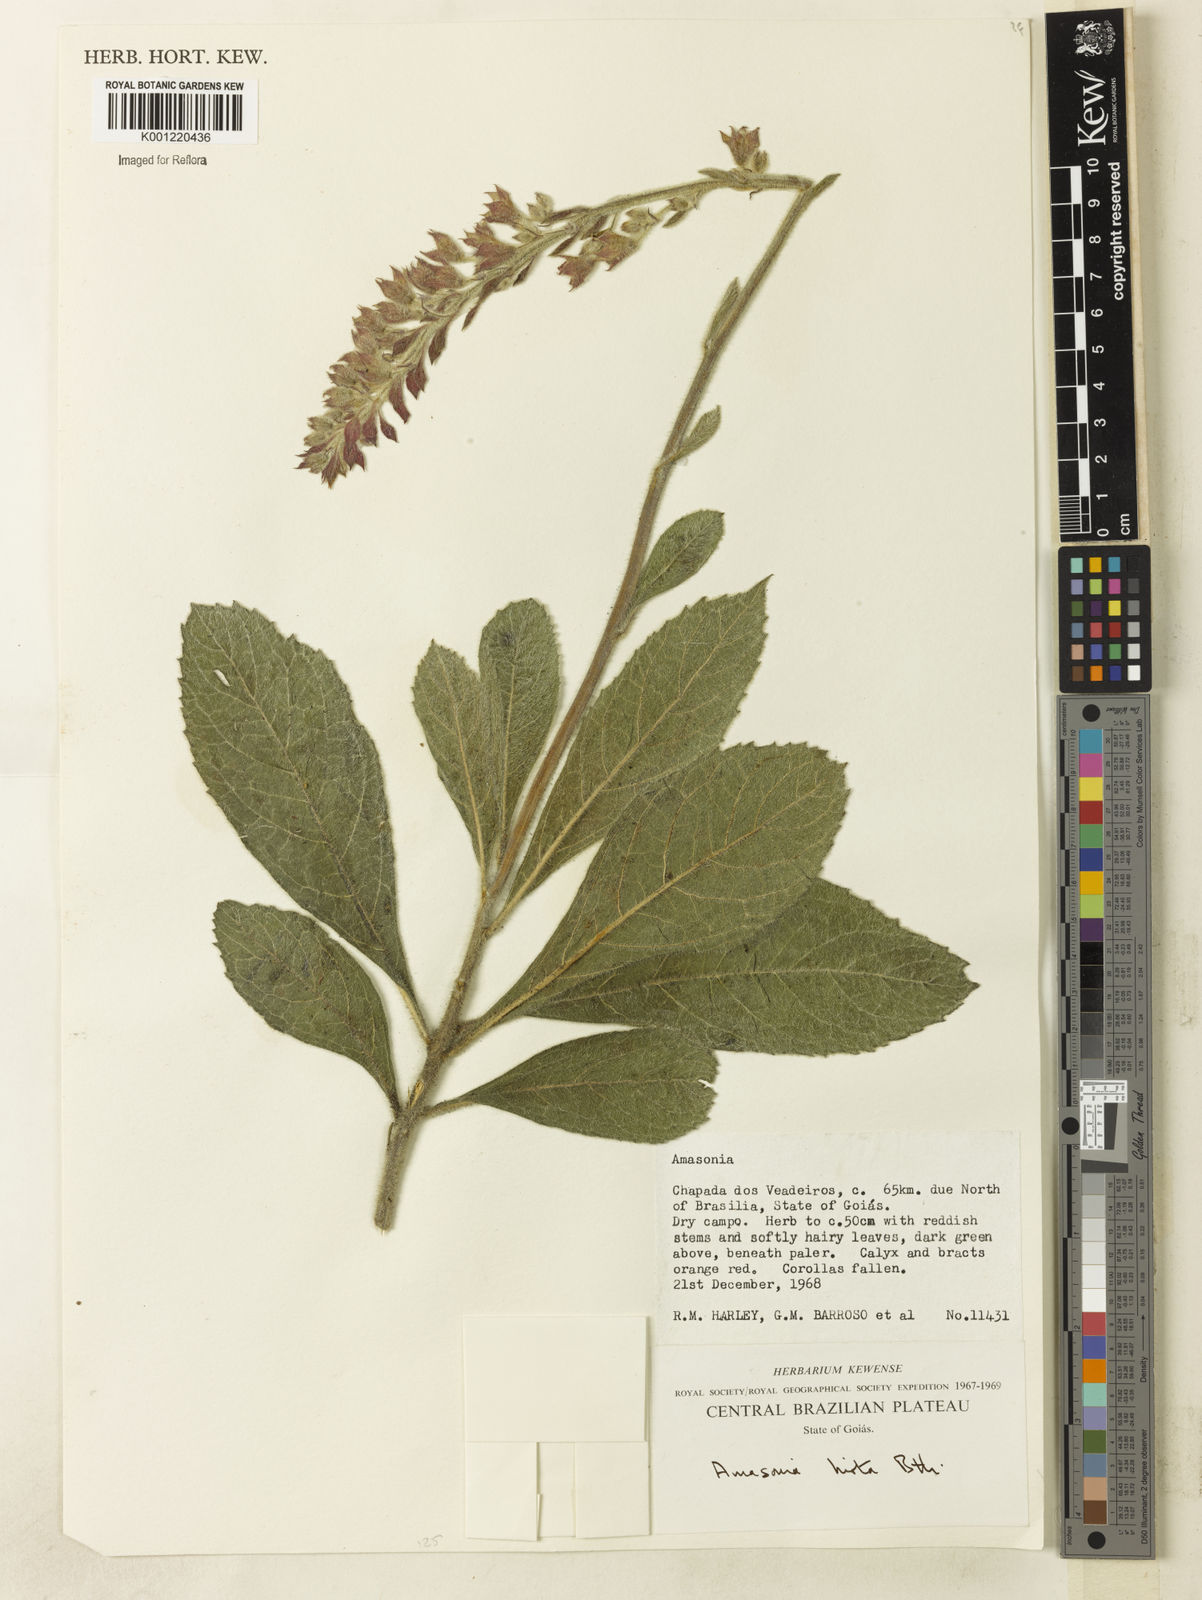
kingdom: Plantae
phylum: Tracheophyta
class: Magnoliopsida
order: Lamiales
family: Lamiaceae
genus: Amasonia
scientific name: Amasonia hirta
